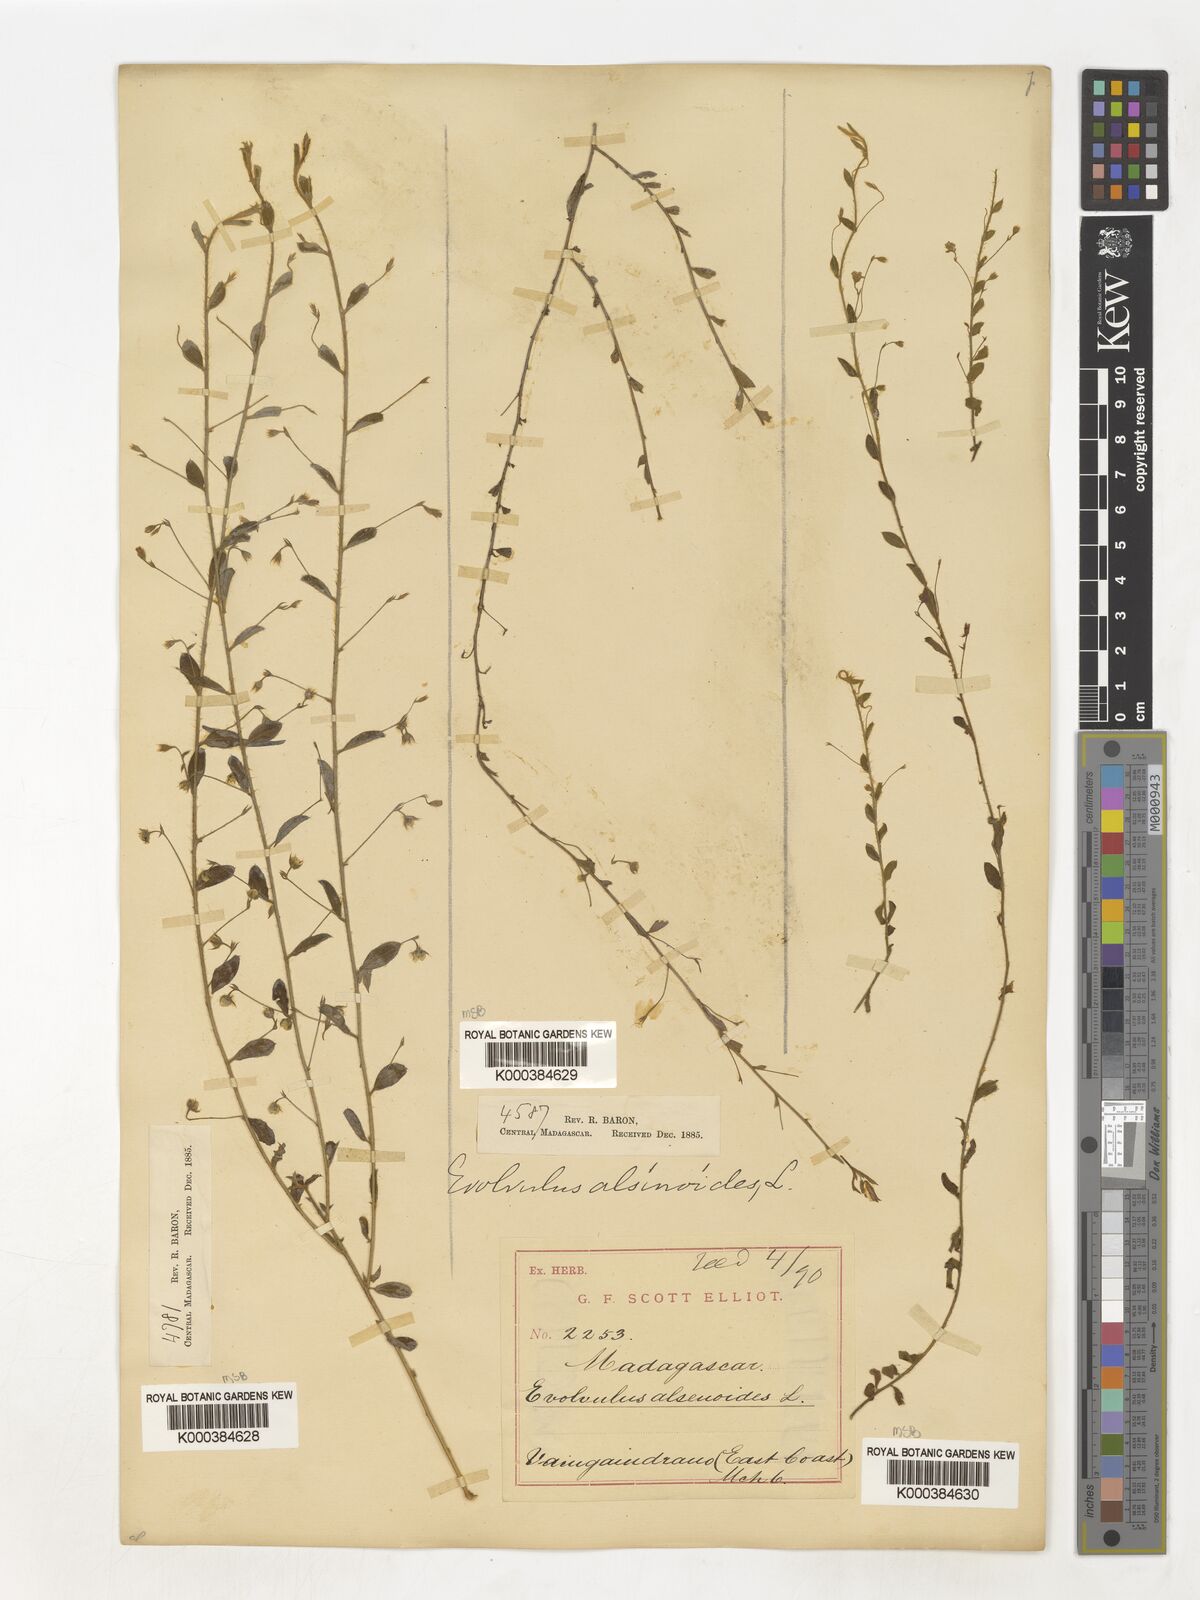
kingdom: Plantae
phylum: Tracheophyta
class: Magnoliopsida
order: Solanales
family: Convolvulaceae
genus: Evolvulus
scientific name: Evolvulus alsinoides
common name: Slender dwarf morning-glory
